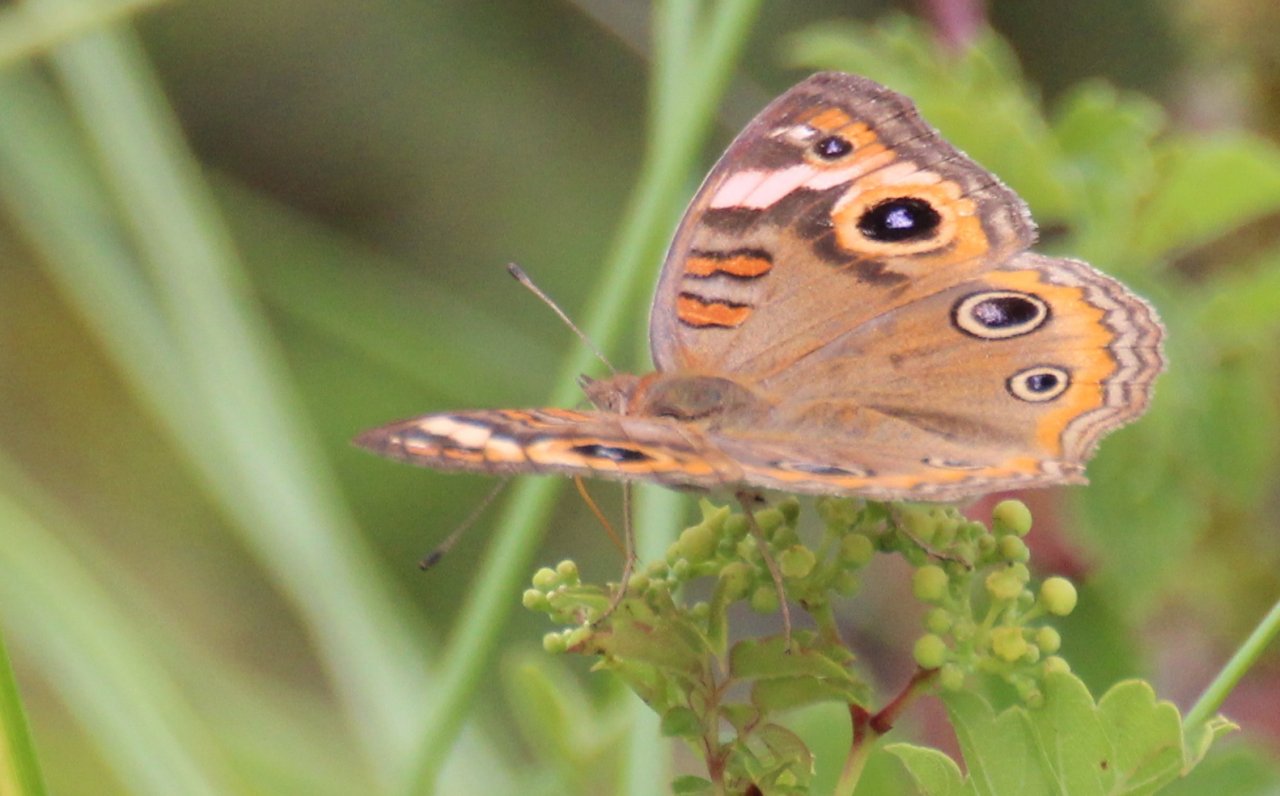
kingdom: Animalia
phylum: Arthropoda
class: Insecta
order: Lepidoptera
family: Nymphalidae
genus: Junonia
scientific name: Junonia coenia
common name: Common Buckeye
